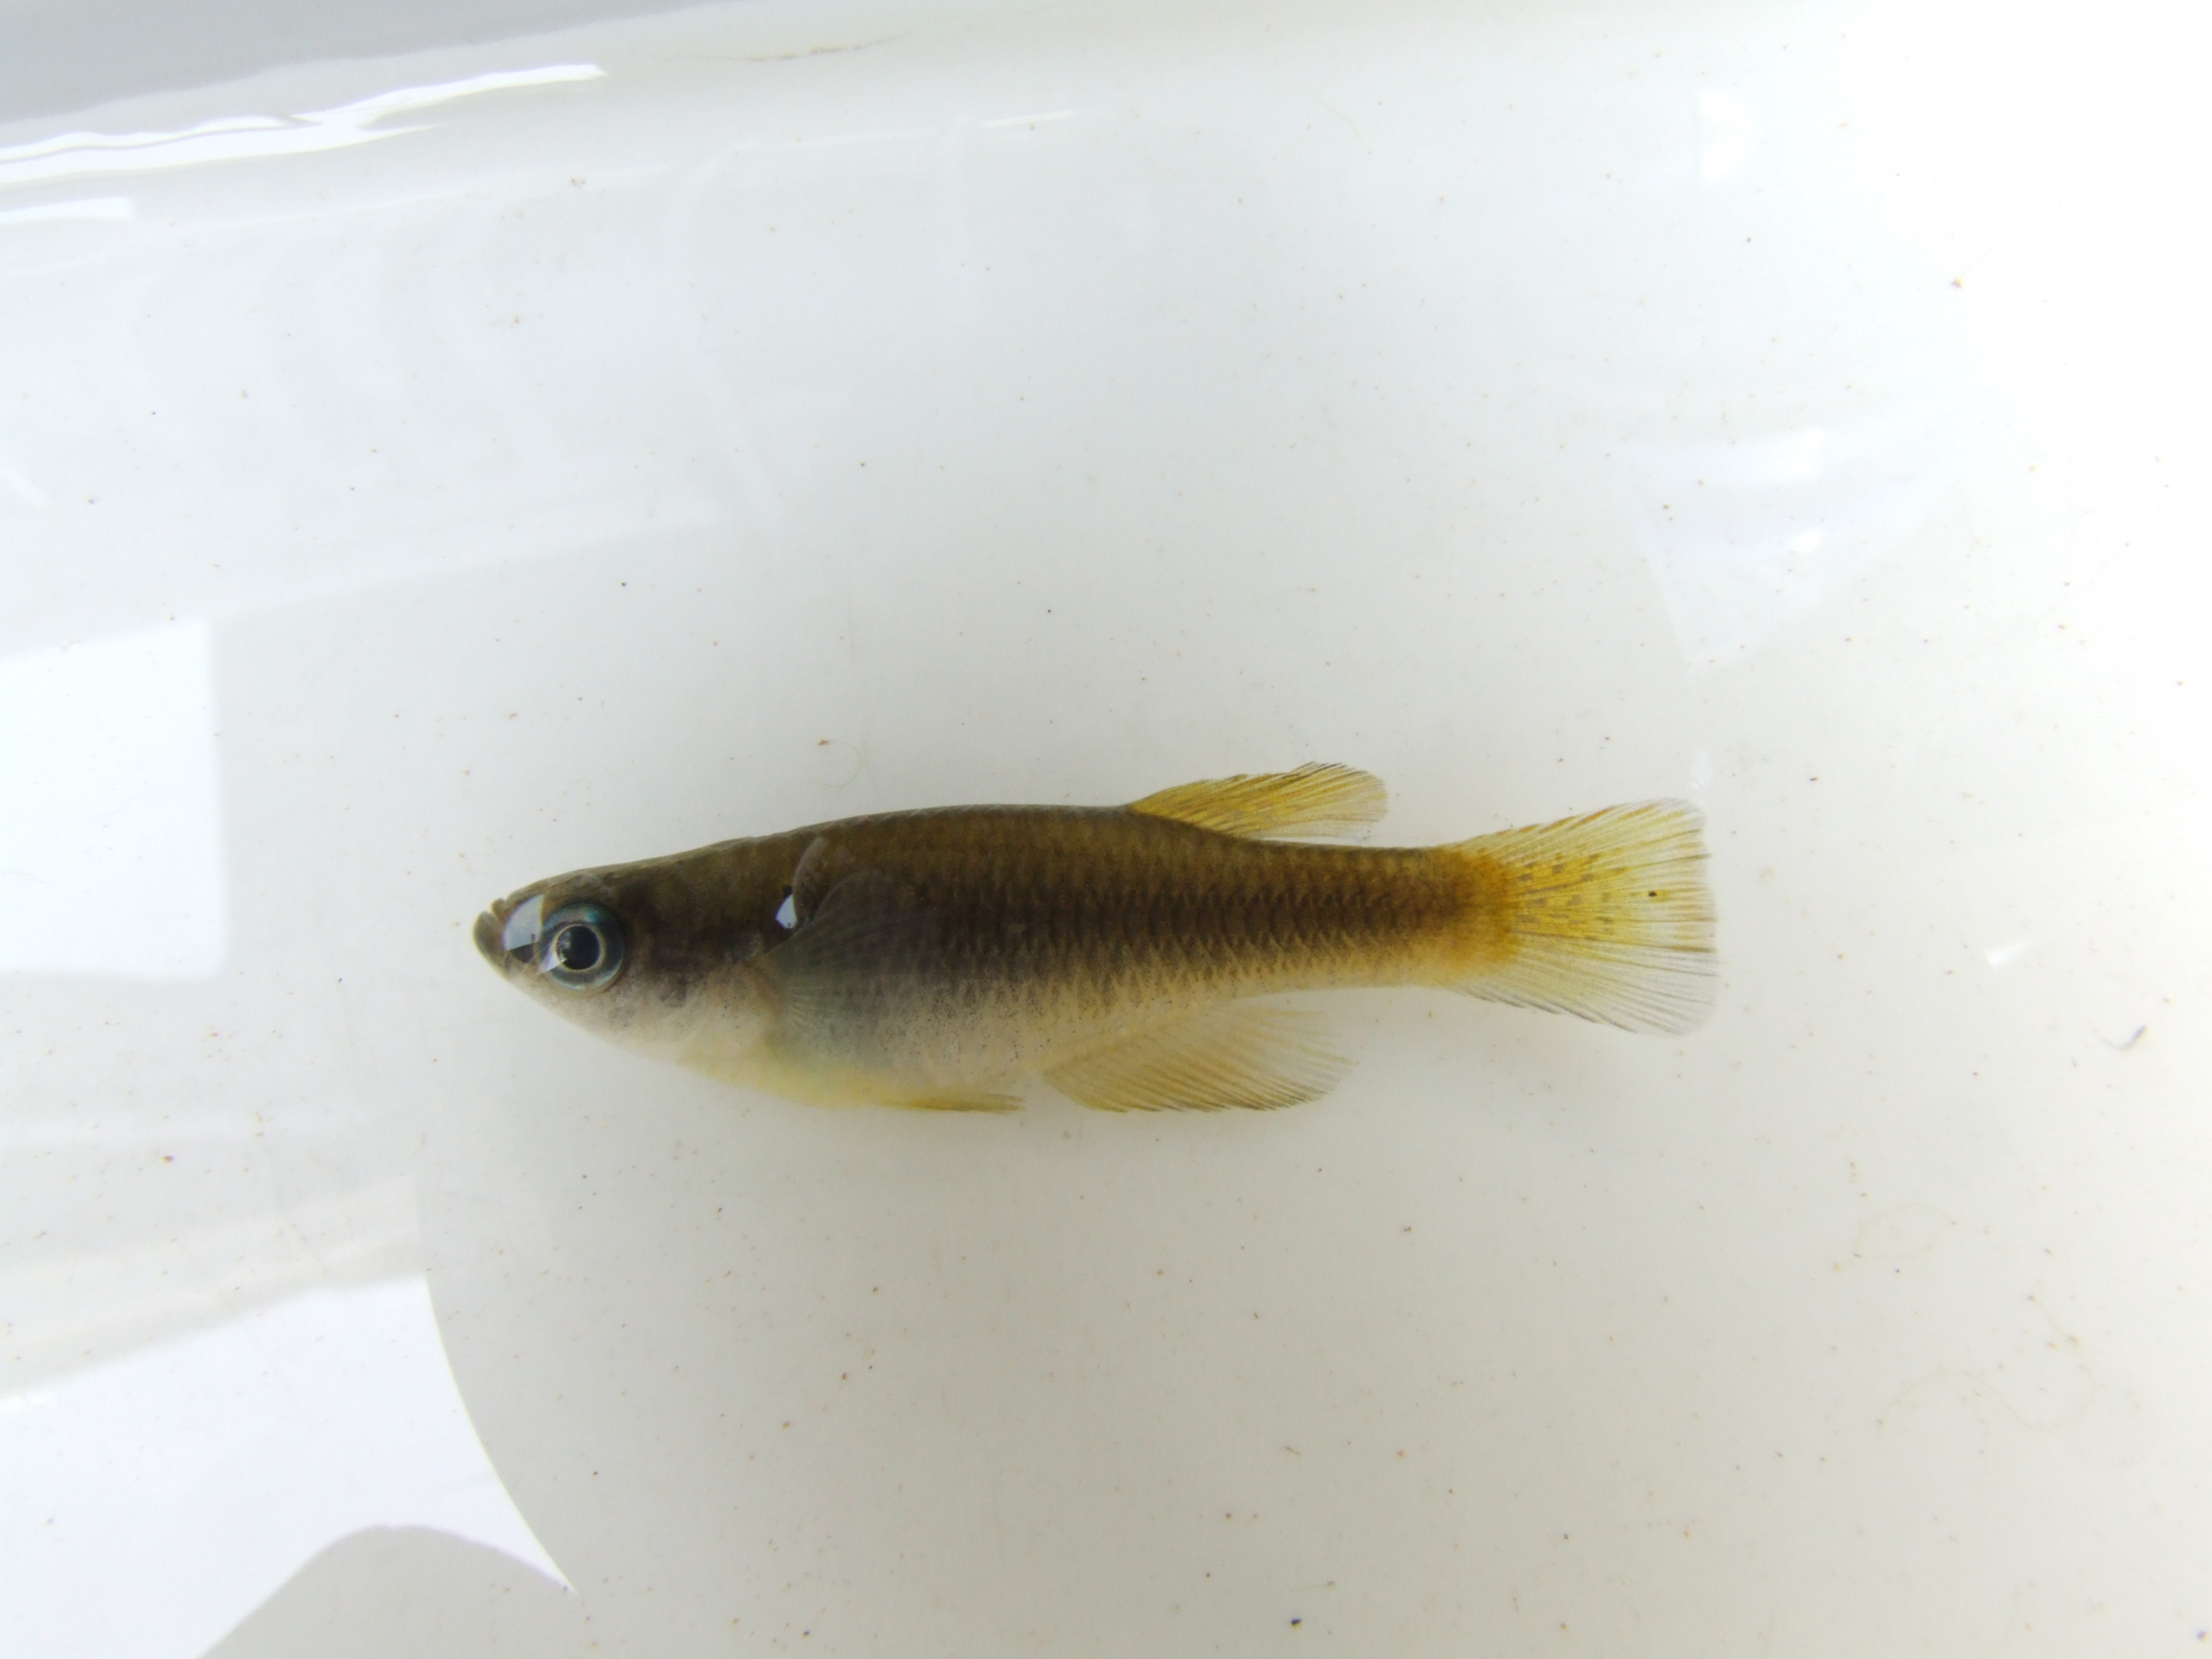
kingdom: Animalia
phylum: Chordata
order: Cyprinodontiformes
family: Poeciliidae
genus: Hypsopanchax
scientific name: Hypsopanchax jubbi
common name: Southern deepbody
